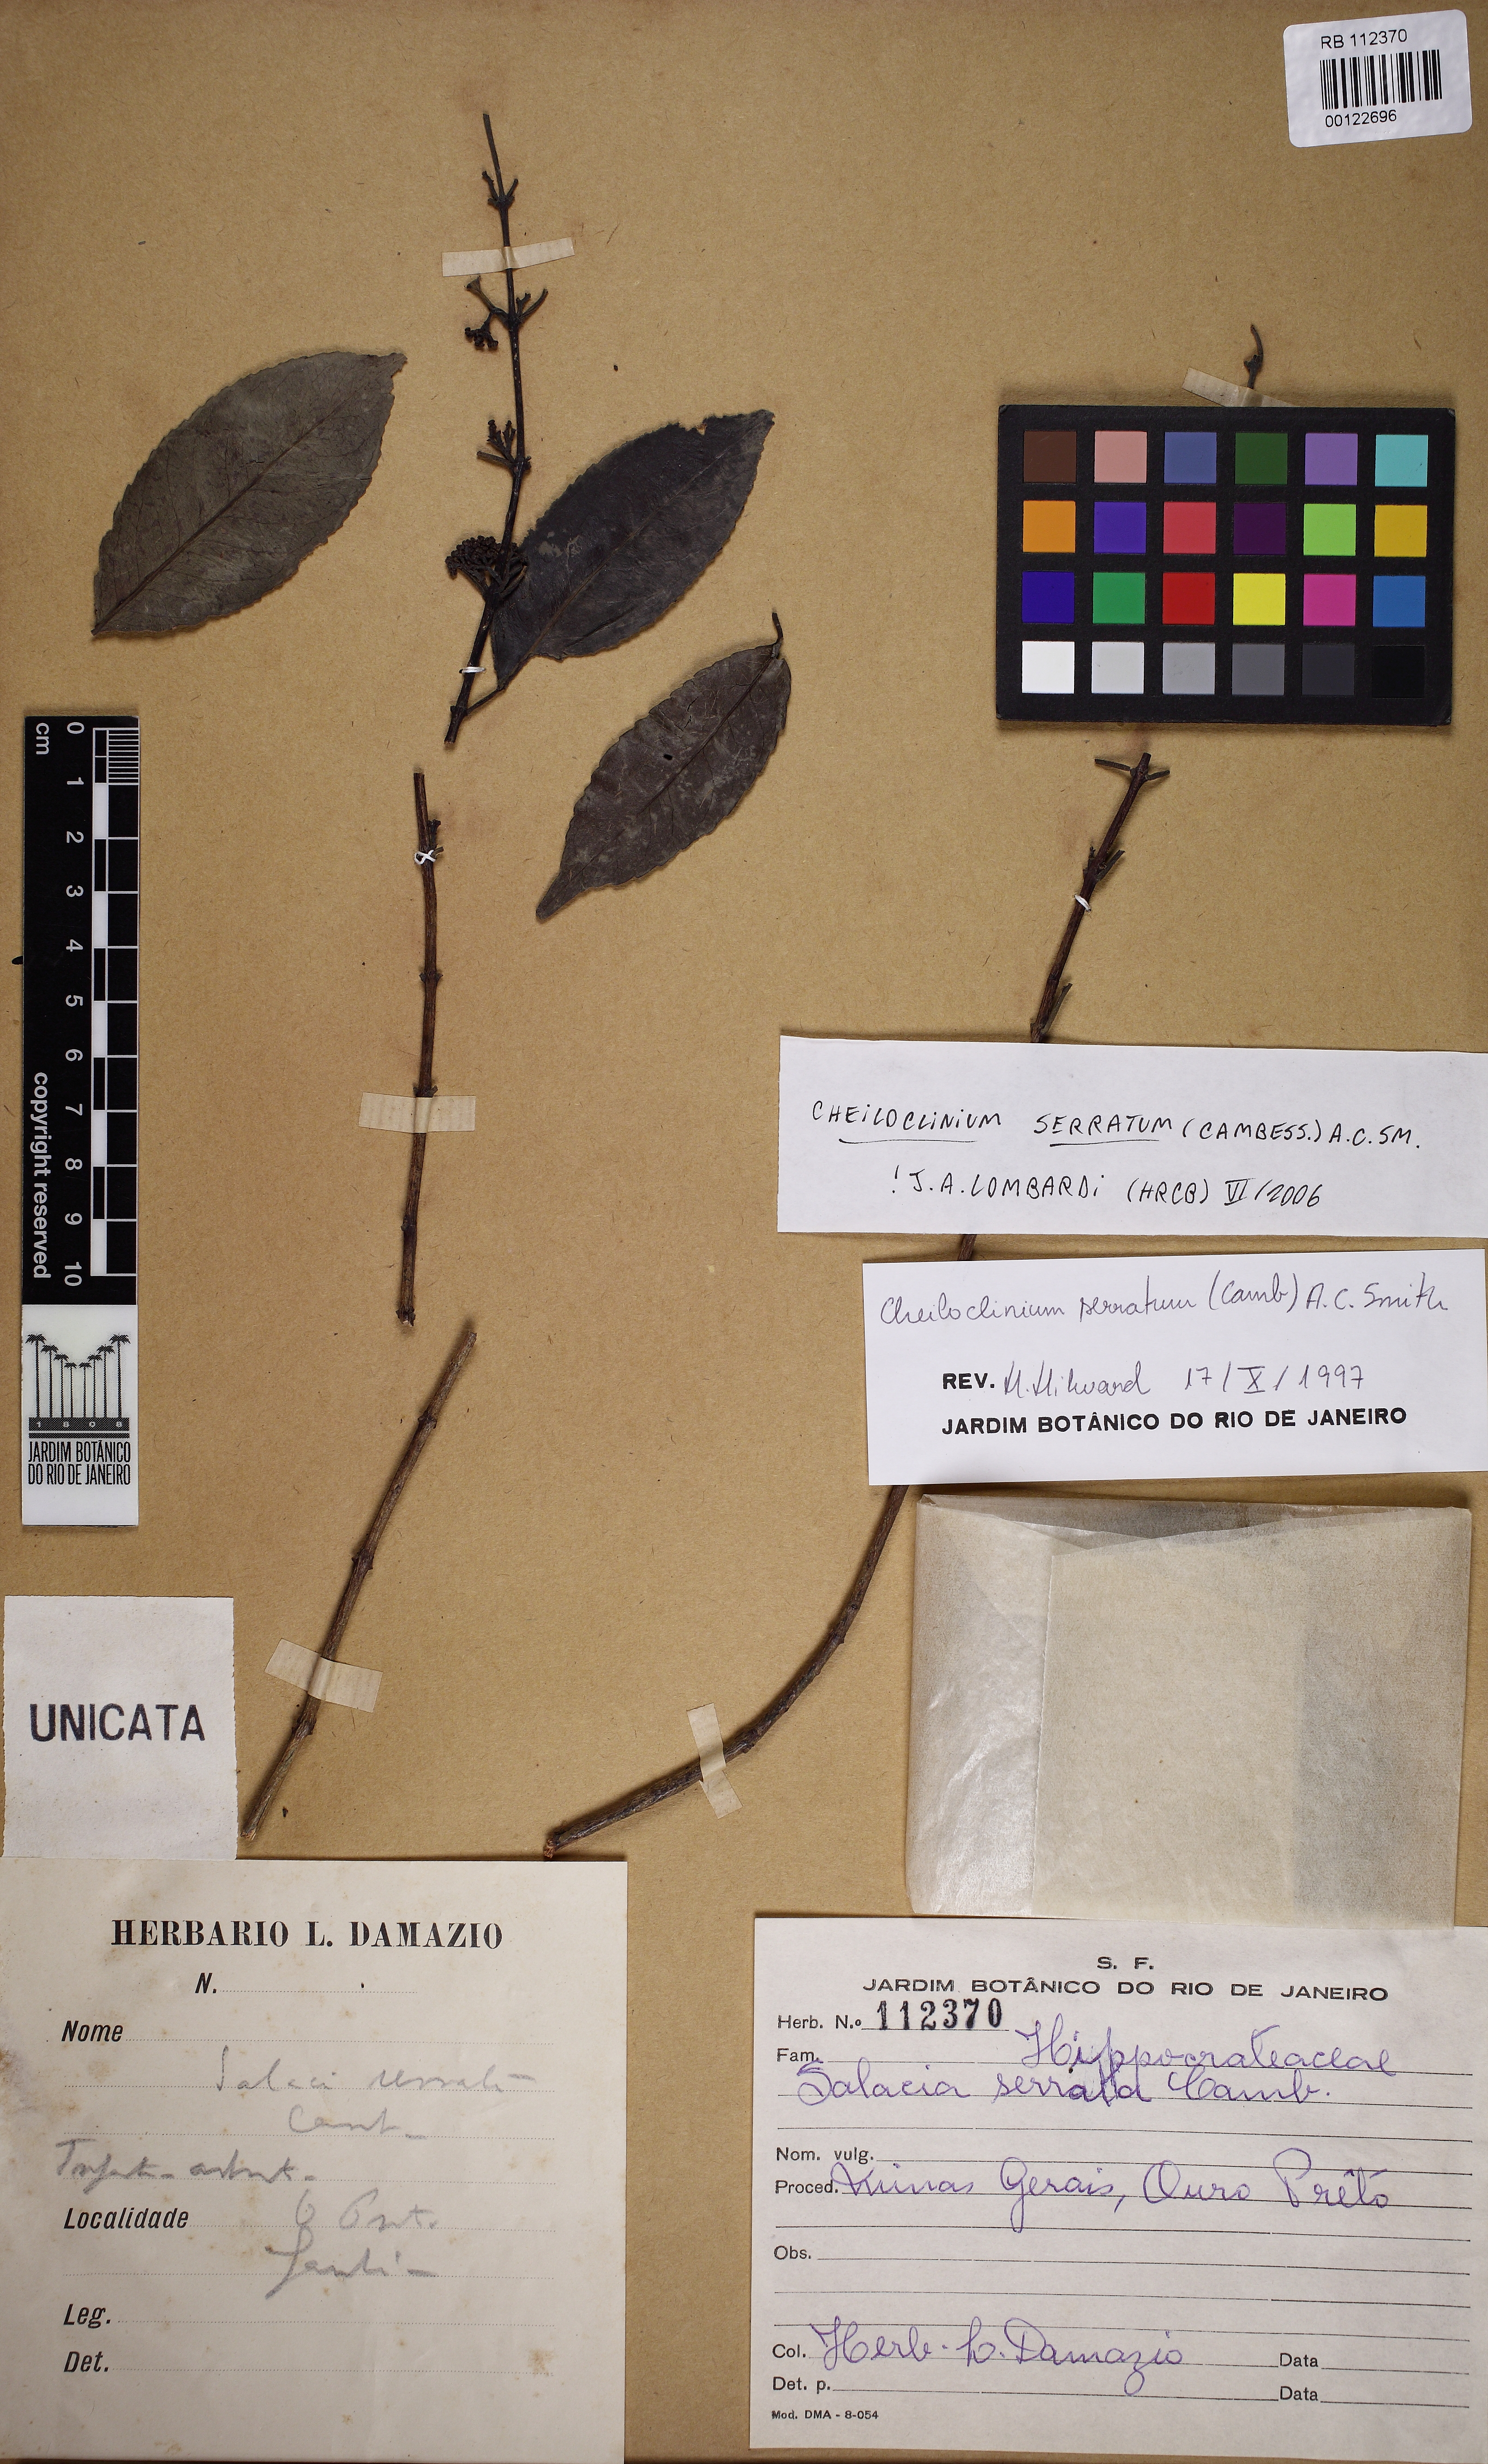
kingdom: Plantae
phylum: Tracheophyta
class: Magnoliopsida
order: Celastrales
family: Celastraceae
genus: Cheiloclinium
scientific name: Cheiloclinium serratum
